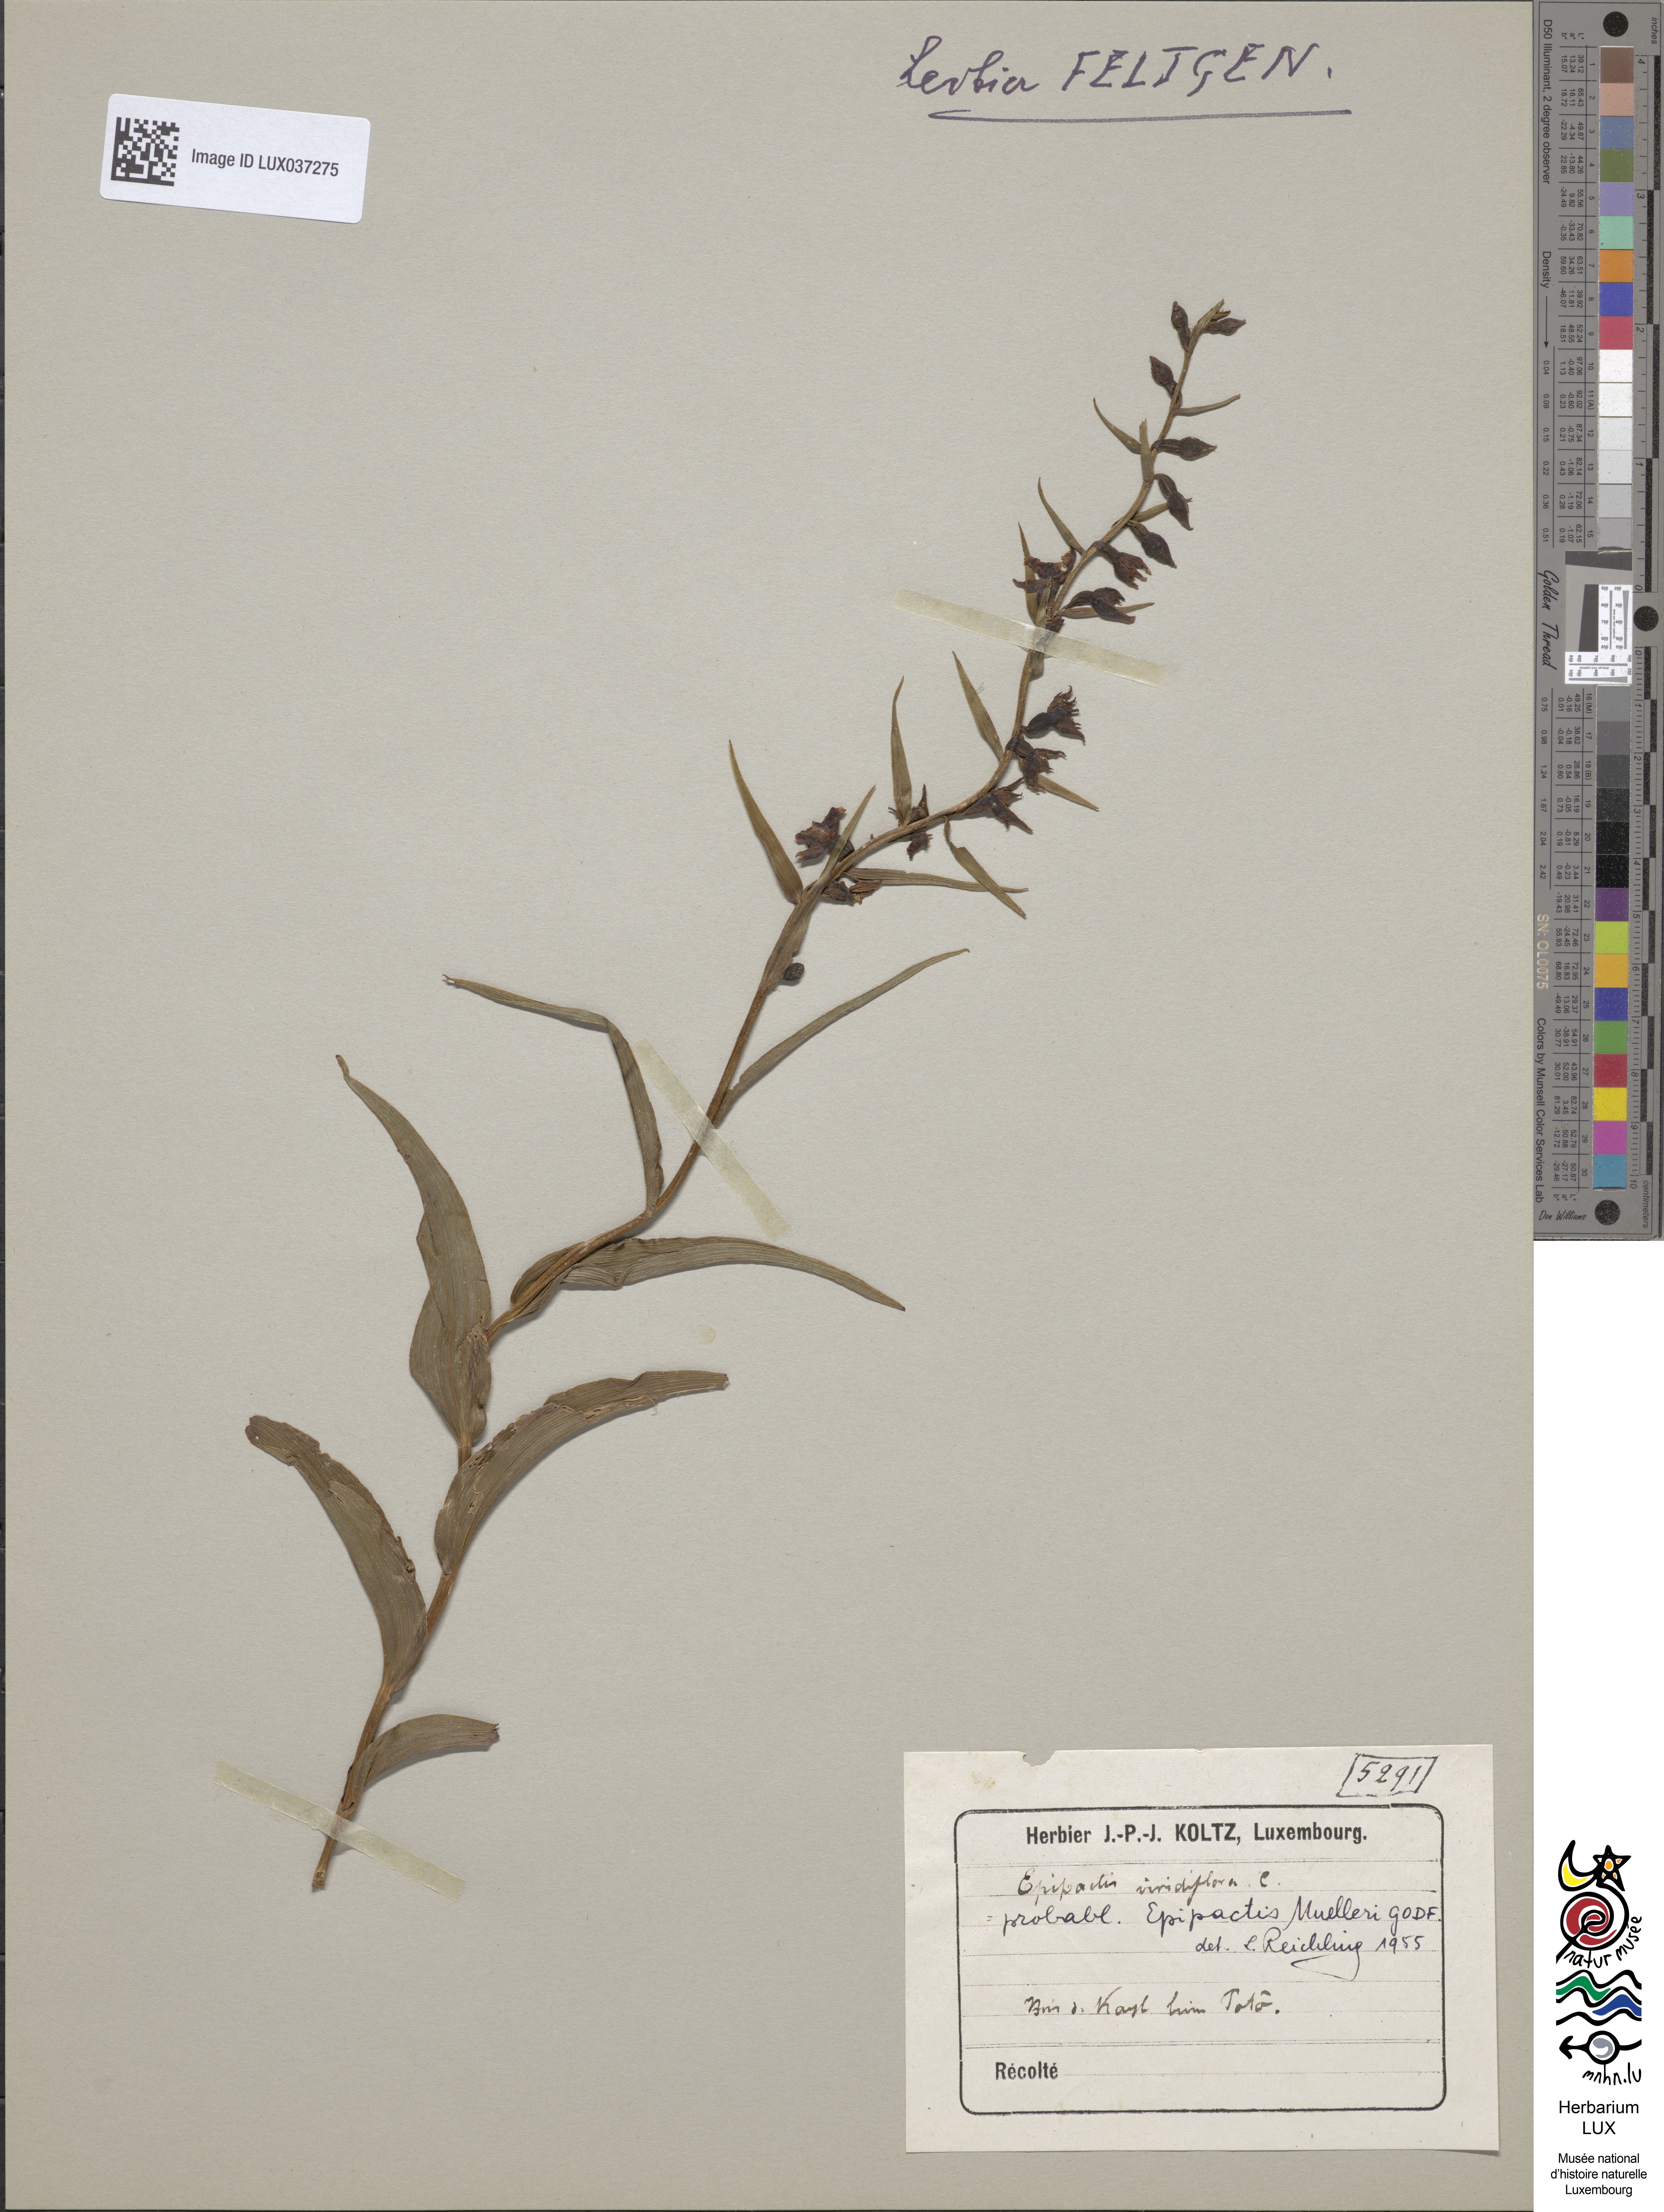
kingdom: Plantae
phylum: Tracheophyta
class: Liliopsida
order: Asparagales
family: Orchidaceae
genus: Epipactis
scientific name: Epipactis muelleri
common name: Mueller's epipactis
